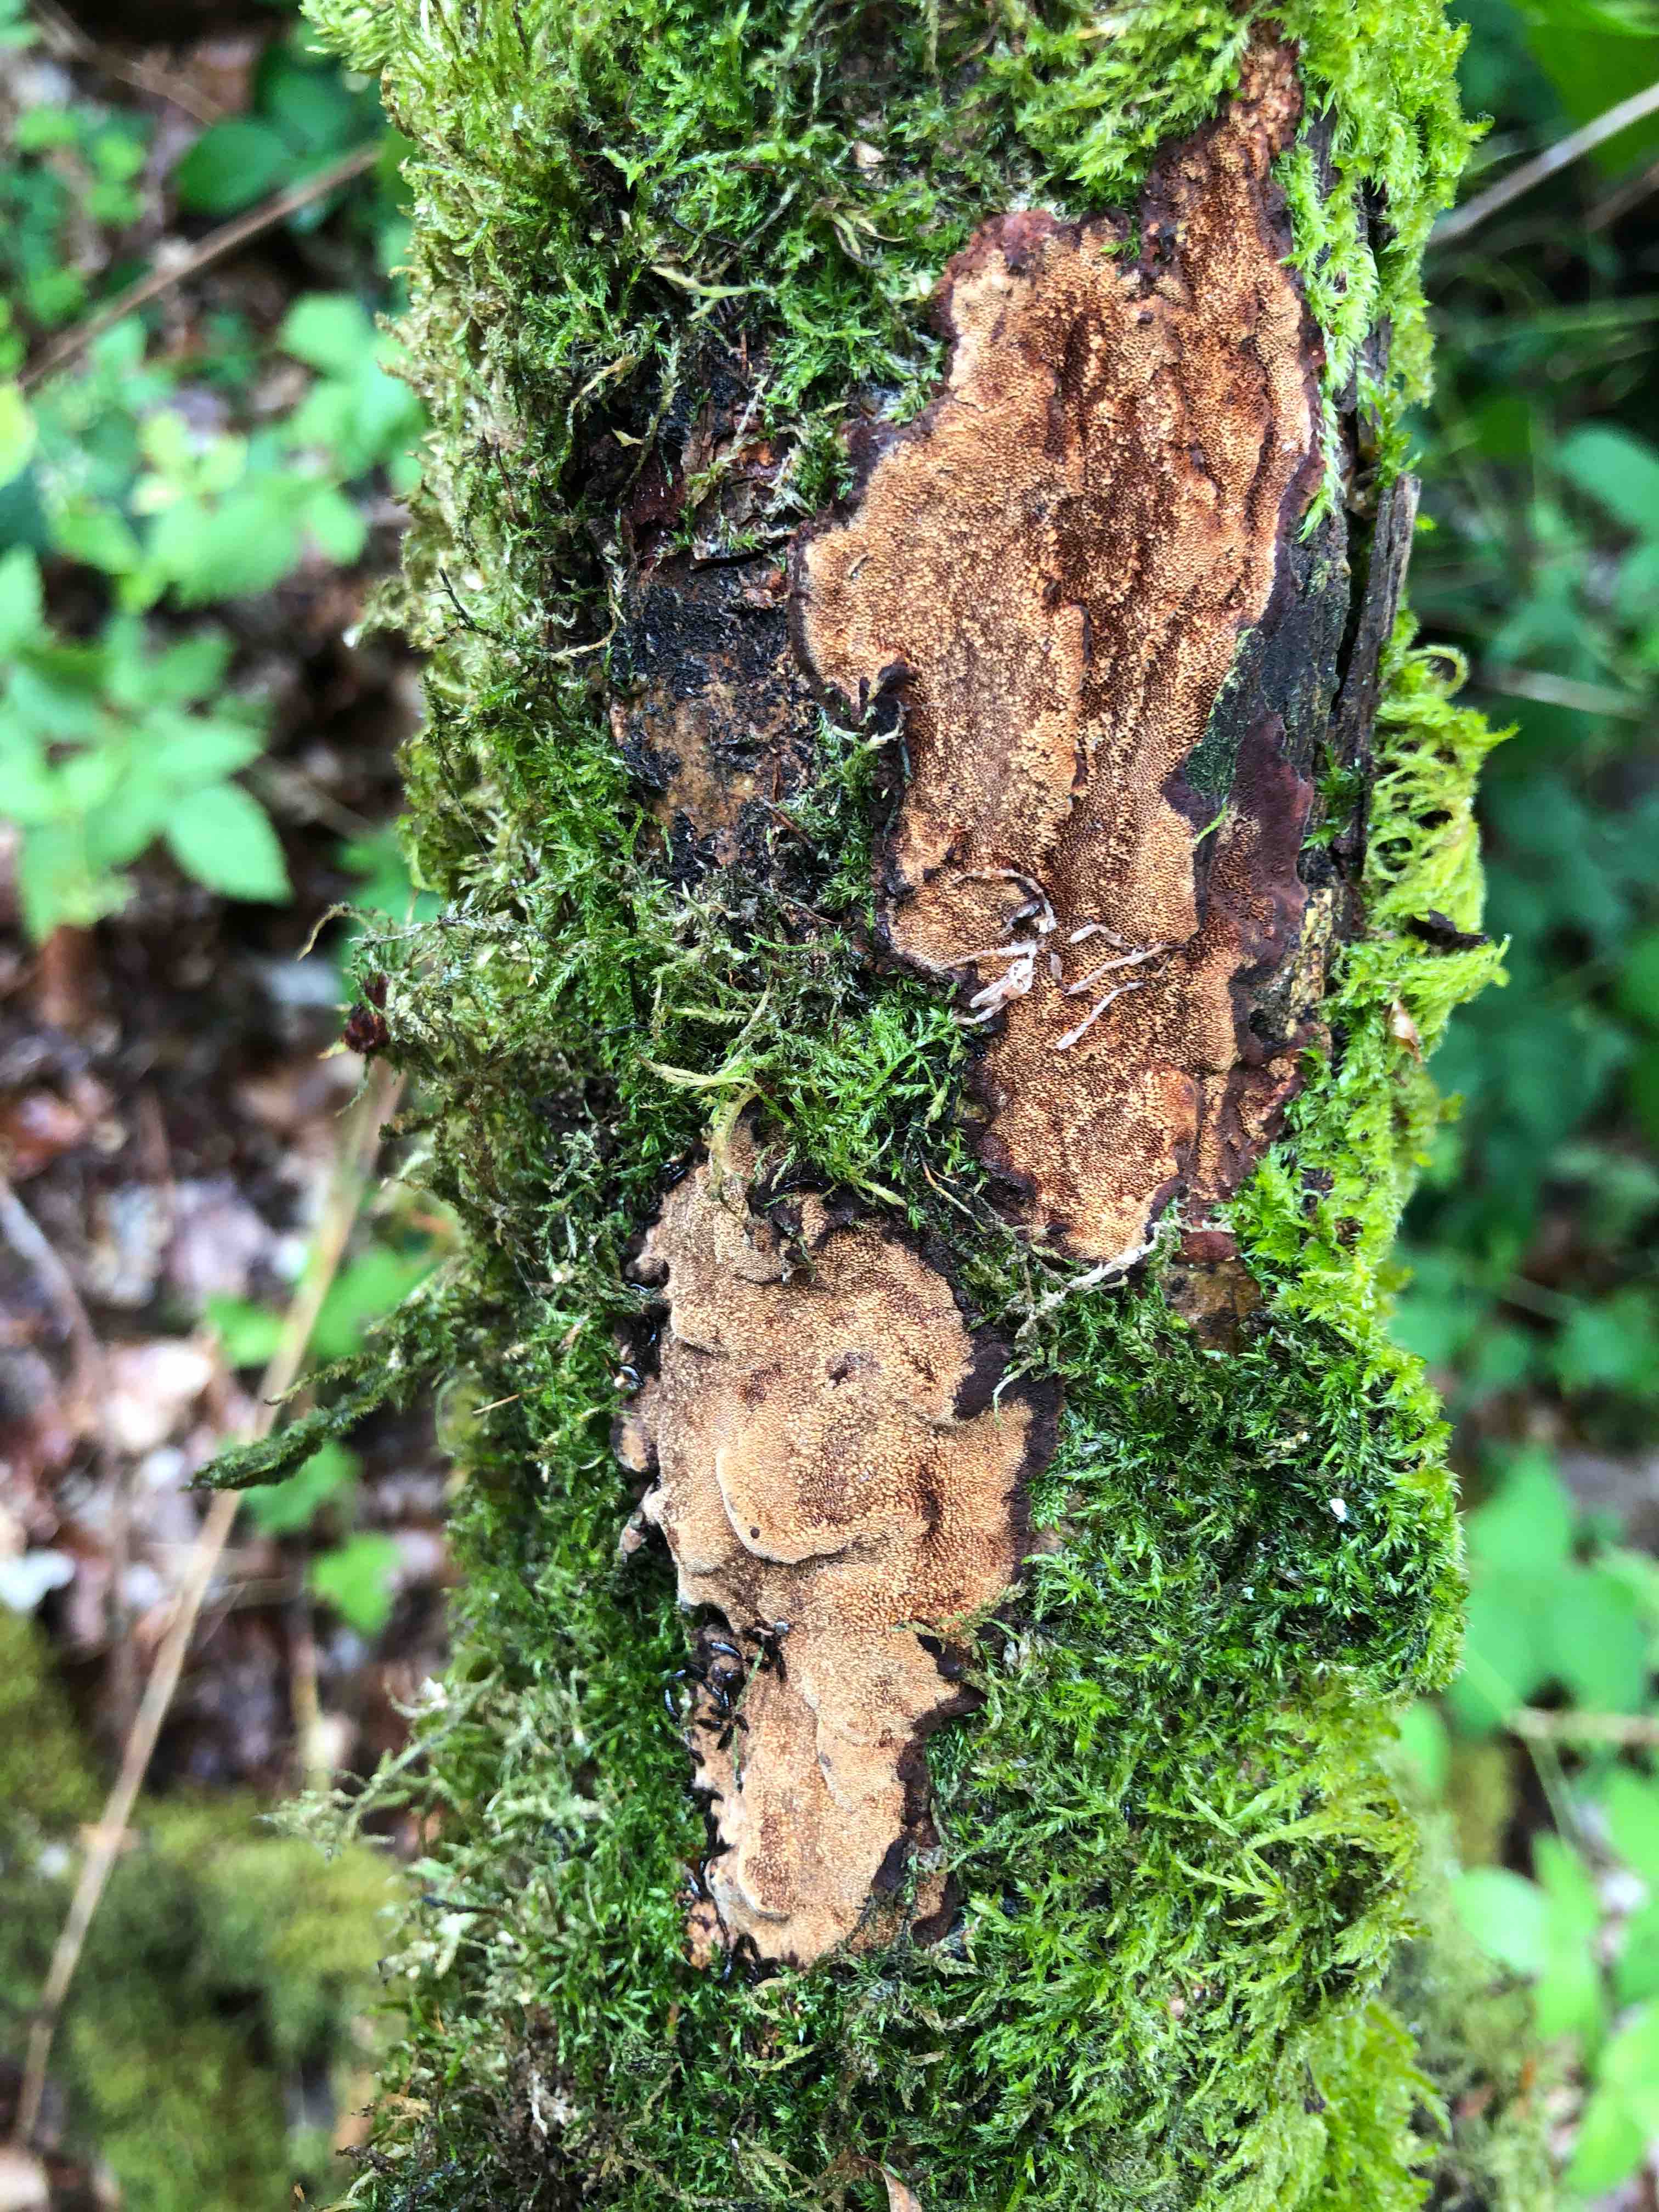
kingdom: Fungi
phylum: Basidiomycota
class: Agaricomycetes
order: Hymenochaetales
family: Hymenochaetaceae
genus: Fuscoporia
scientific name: Fuscoporia ferrea
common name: skorpe-ildporesvamp
